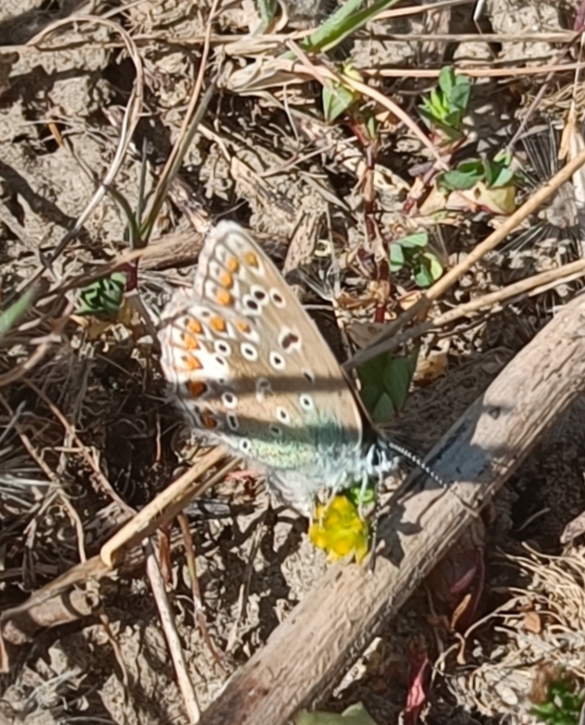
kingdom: Animalia
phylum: Arthropoda
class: Insecta
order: Lepidoptera
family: Lycaenidae
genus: Polyommatus
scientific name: Polyommatus icarus
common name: Almindelig blåfugl
